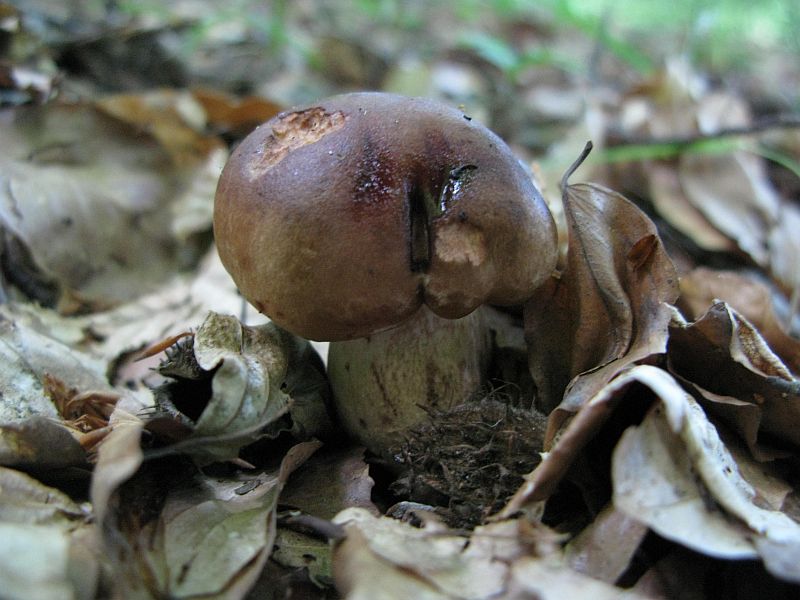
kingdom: Fungi
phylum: Basidiomycota
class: Agaricomycetes
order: Agaricales
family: Tricholomataceae
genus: Tricholoma
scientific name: Tricholoma ustale
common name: sveden ridderhat
